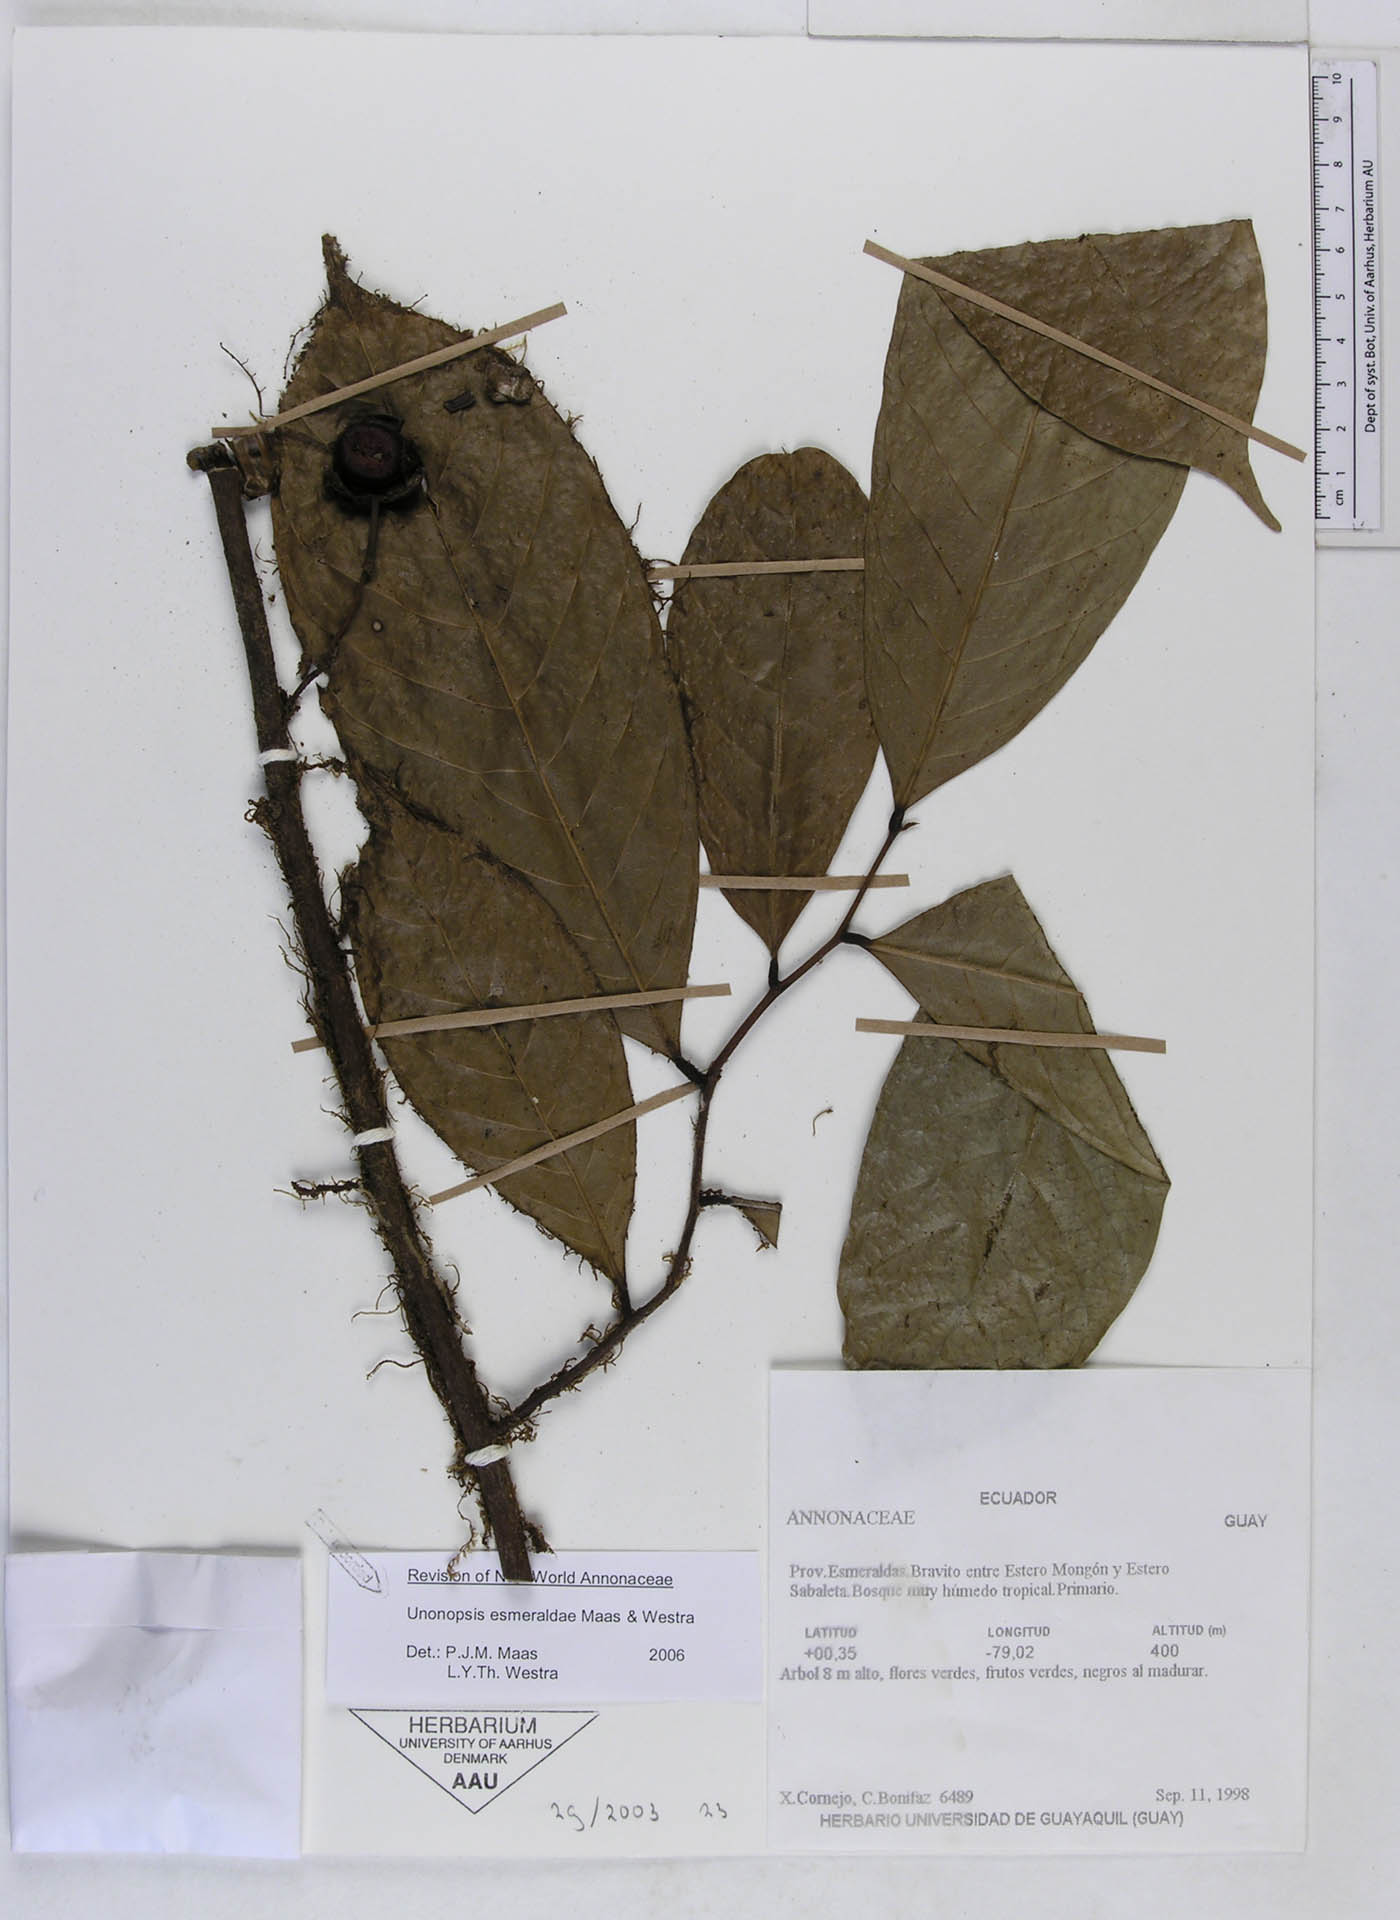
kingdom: Plantae
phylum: Tracheophyta
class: Magnoliopsida
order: Magnoliales
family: Annonaceae
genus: Unonopsis
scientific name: Unonopsis esmeraldae
